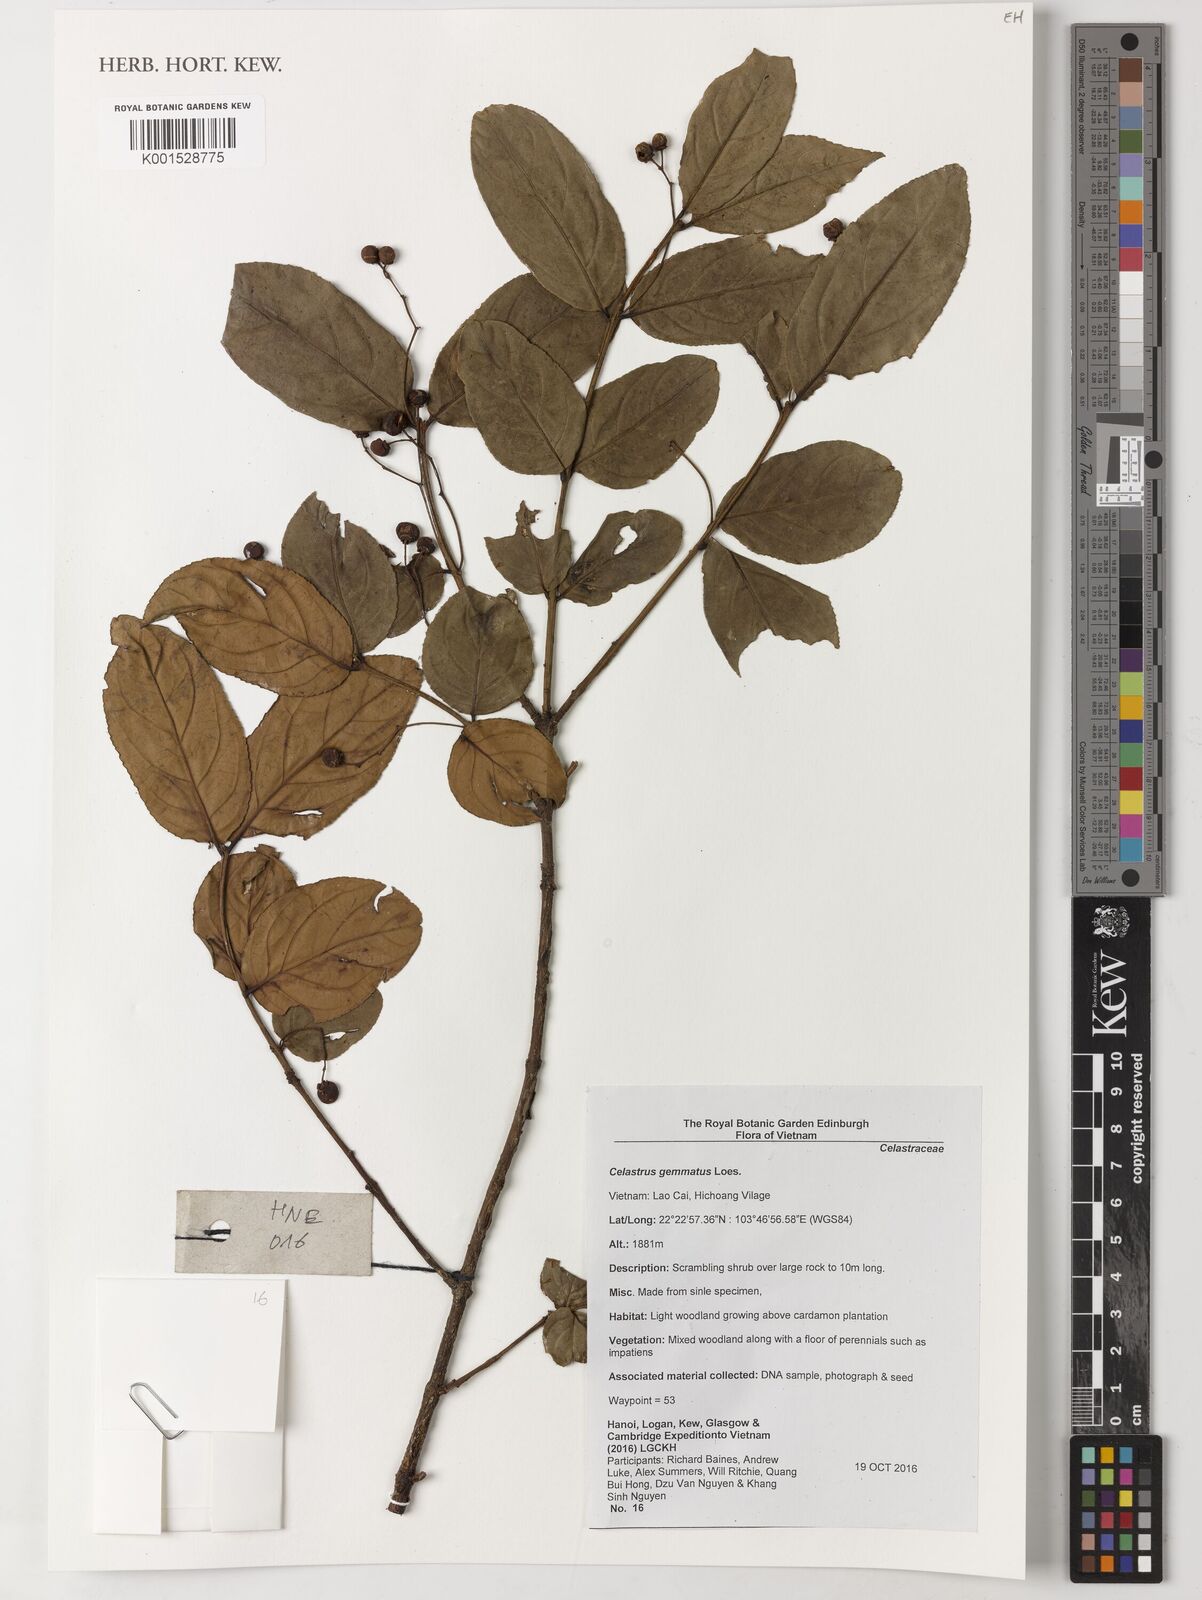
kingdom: Plantae
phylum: Tracheophyta
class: Magnoliopsida
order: Celastrales
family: Celastraceae
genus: Celastrus
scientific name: Celastrus gemmatus
